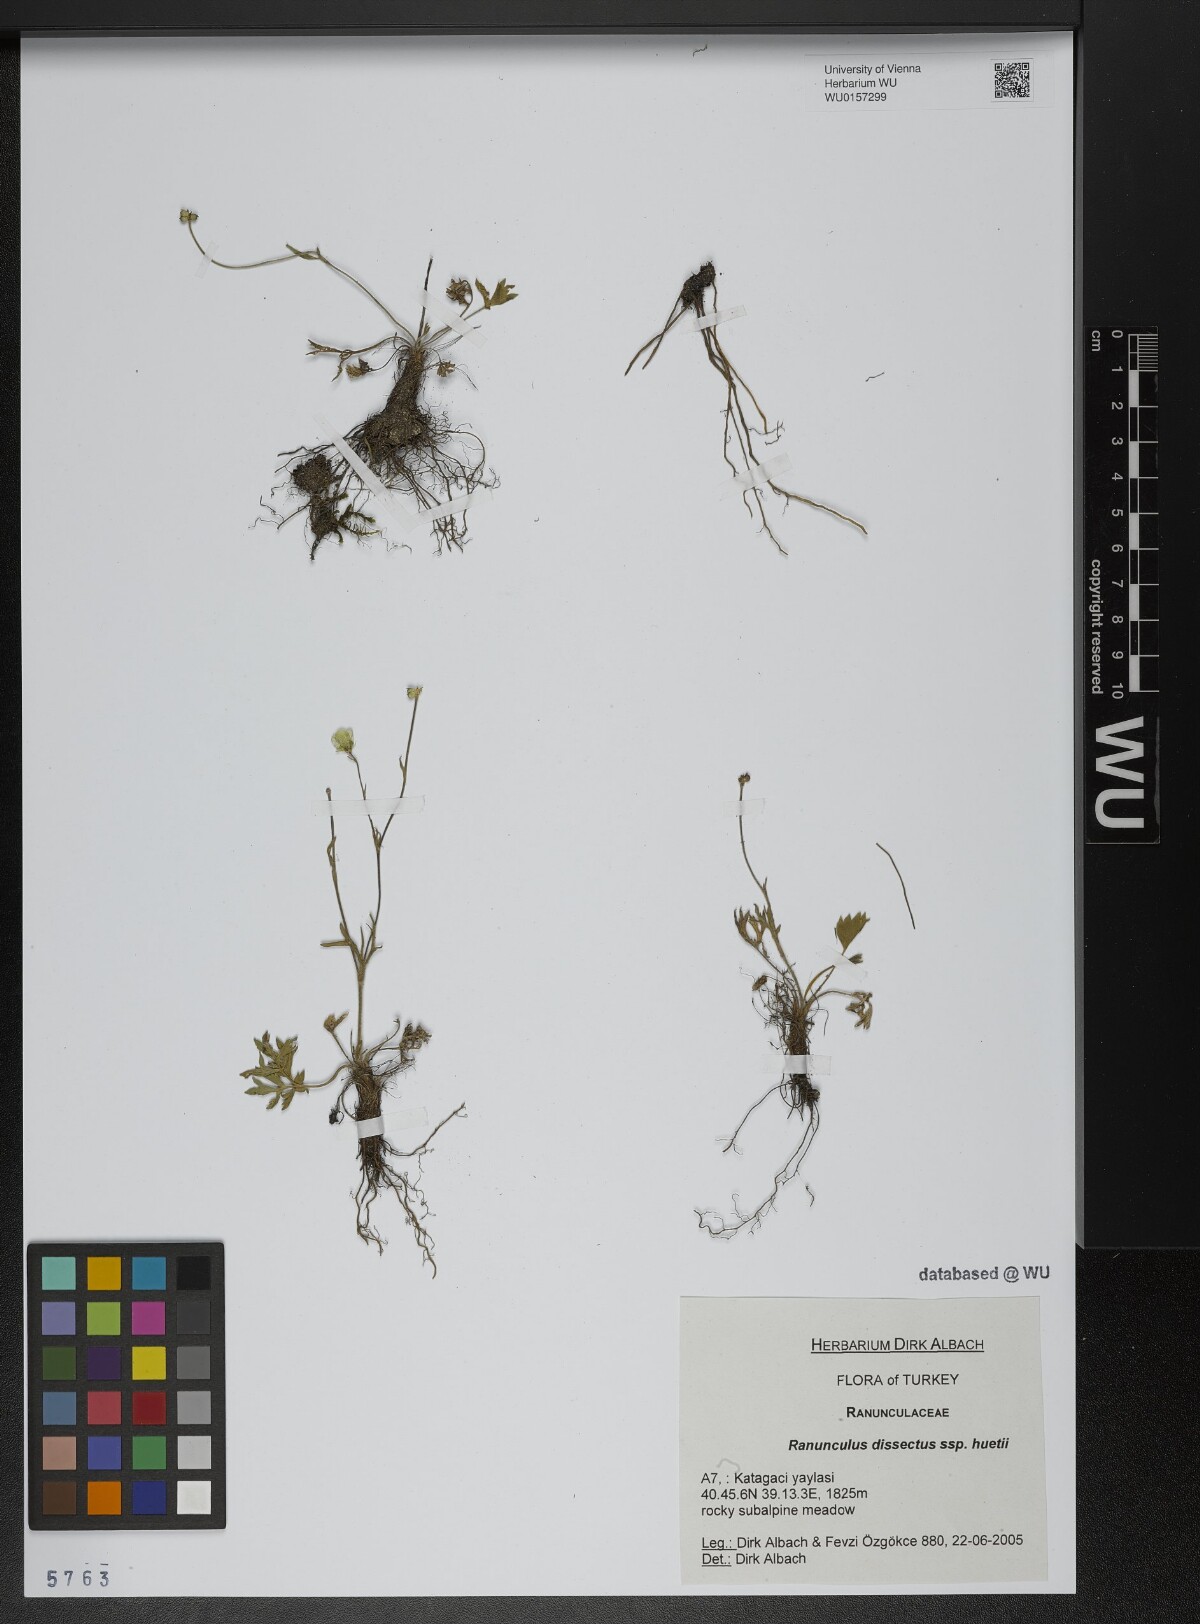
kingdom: Plantae
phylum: Tracheophyta
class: Magnoliopsida
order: Ranunculales
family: Ranunculaceae
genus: Ranunculus
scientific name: Ranunculus dissectus
